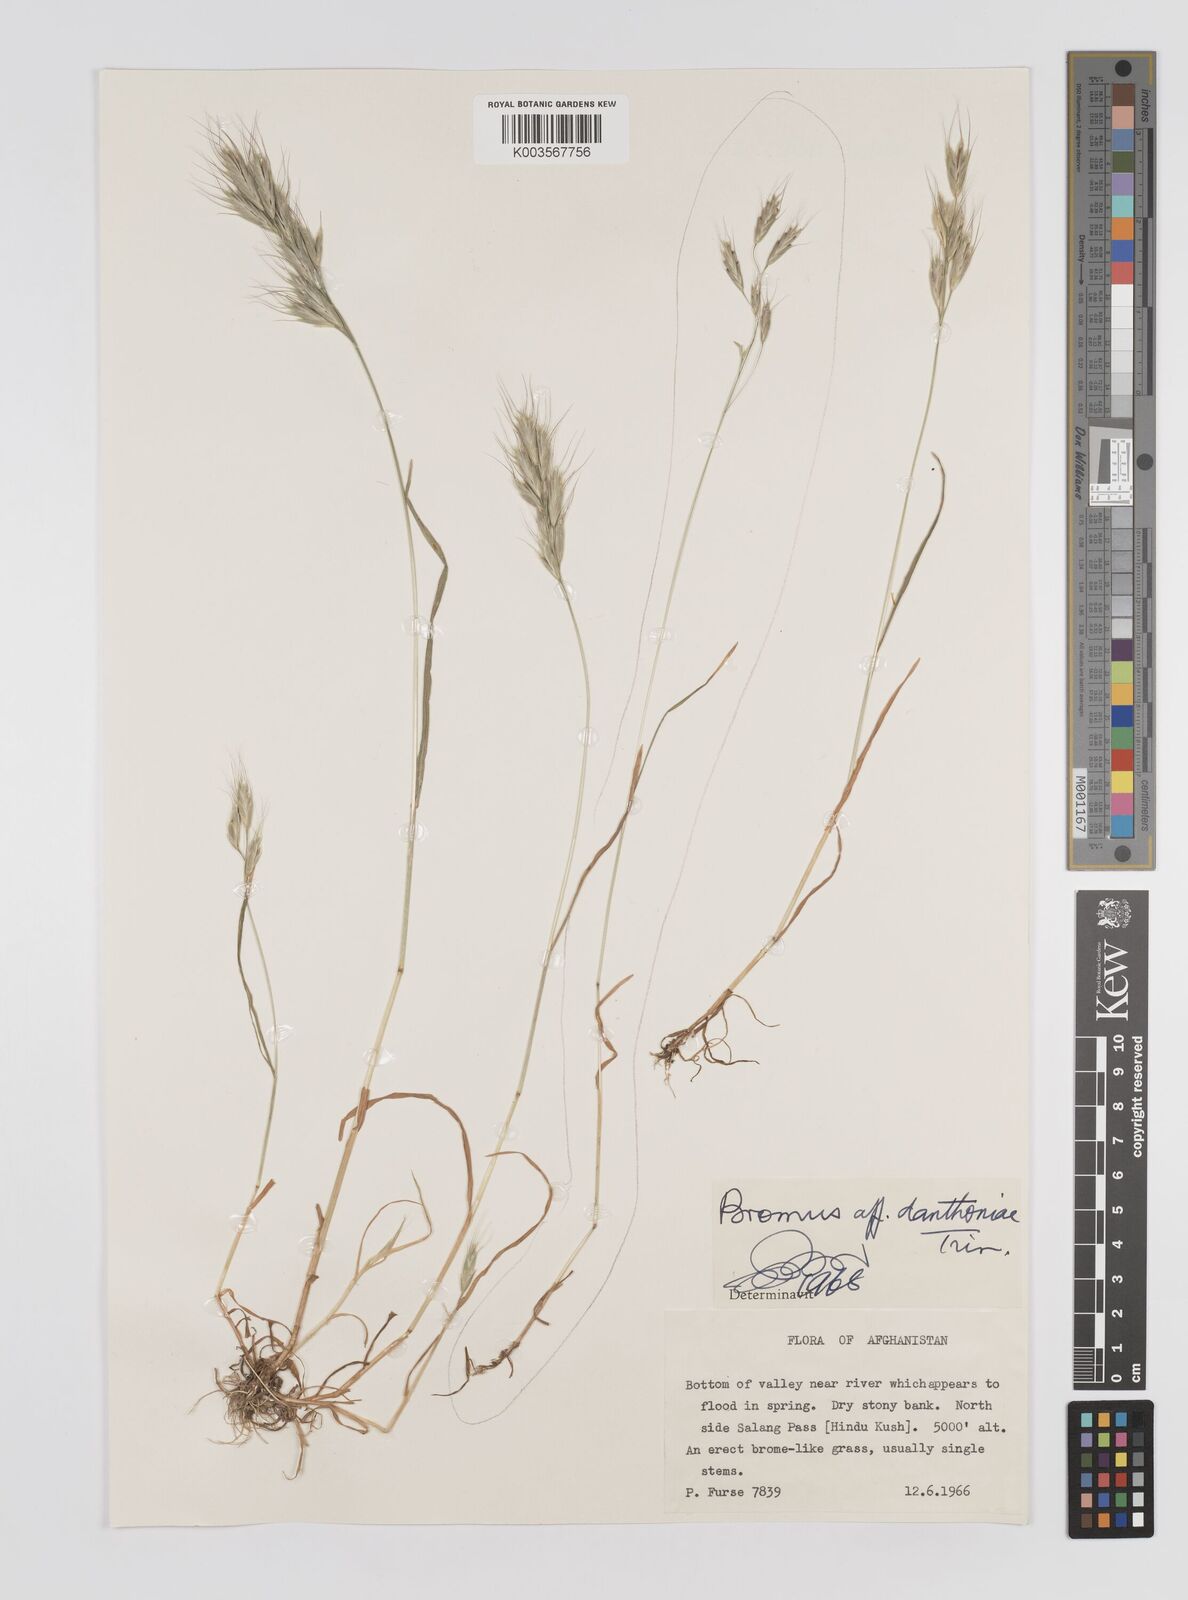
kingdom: Plantae
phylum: Tracheophyta
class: Liliopsida
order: Poales
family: Poaceae
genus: Bromus
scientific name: Bromus
